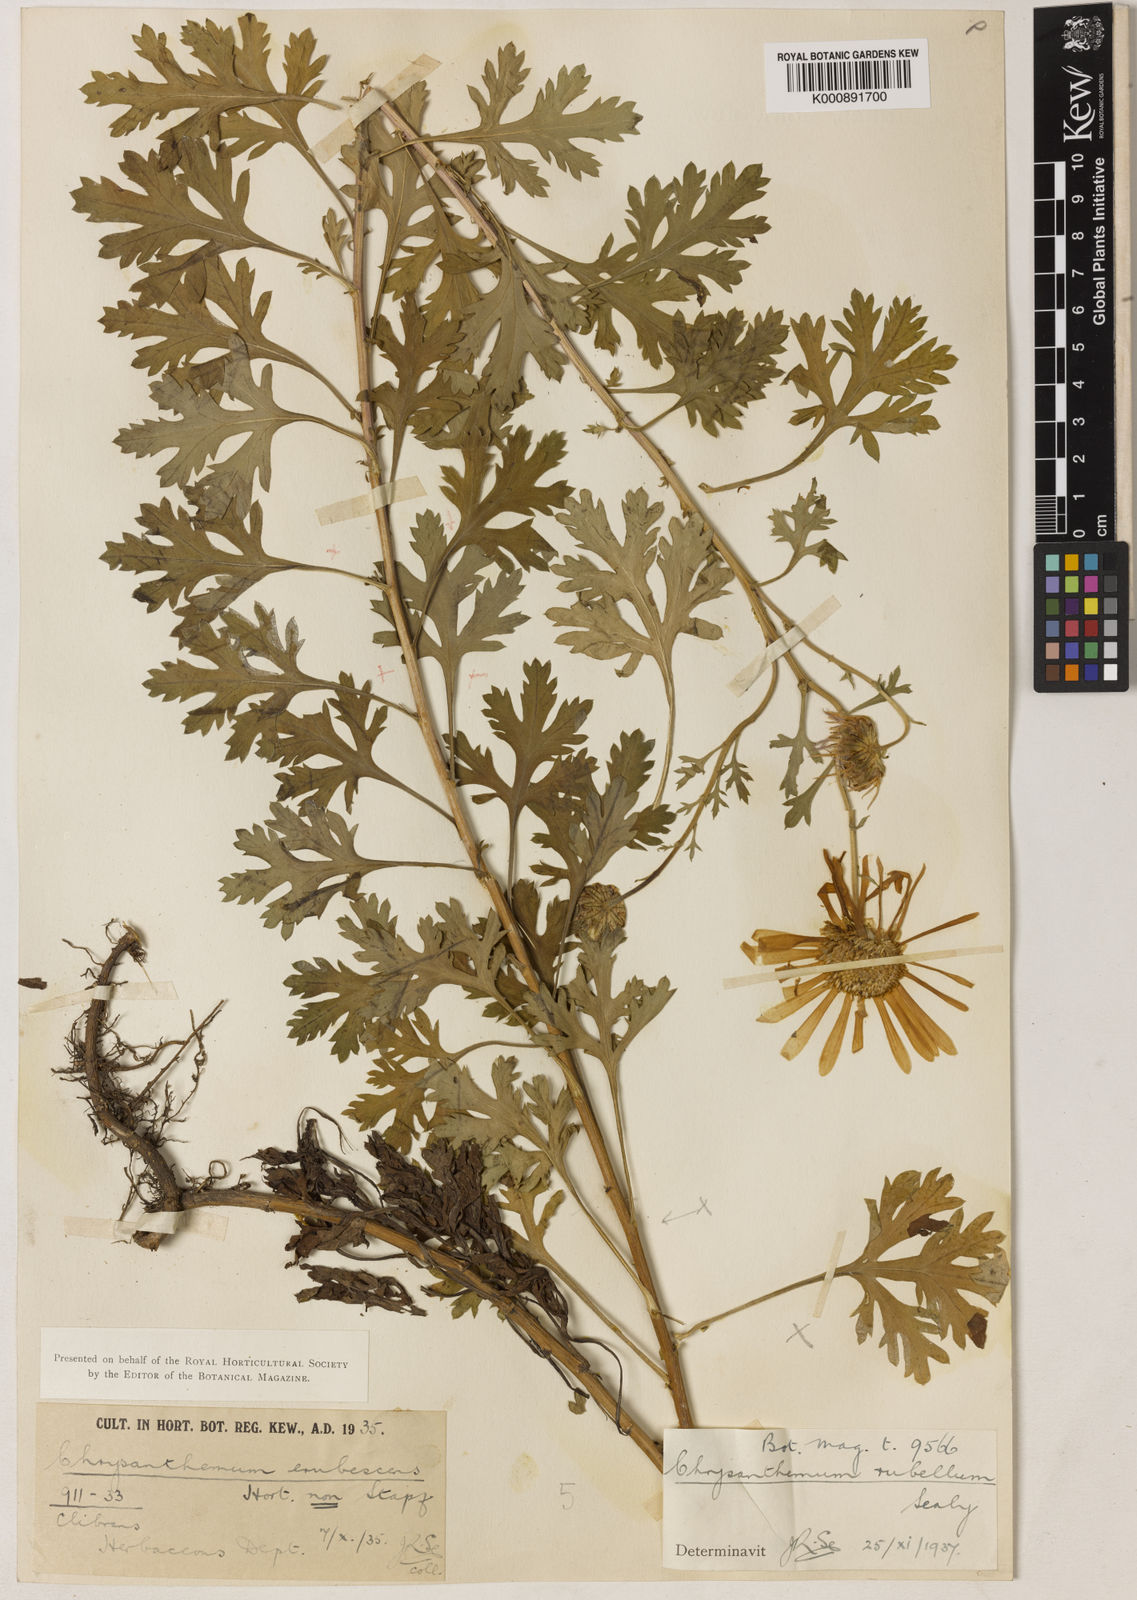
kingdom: Plantae
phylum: Tracheophyta
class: Magnoliopsida
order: Asterales
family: Asteraceae
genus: Chrysanthemum
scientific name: Chrysanthemum zawadzkii
